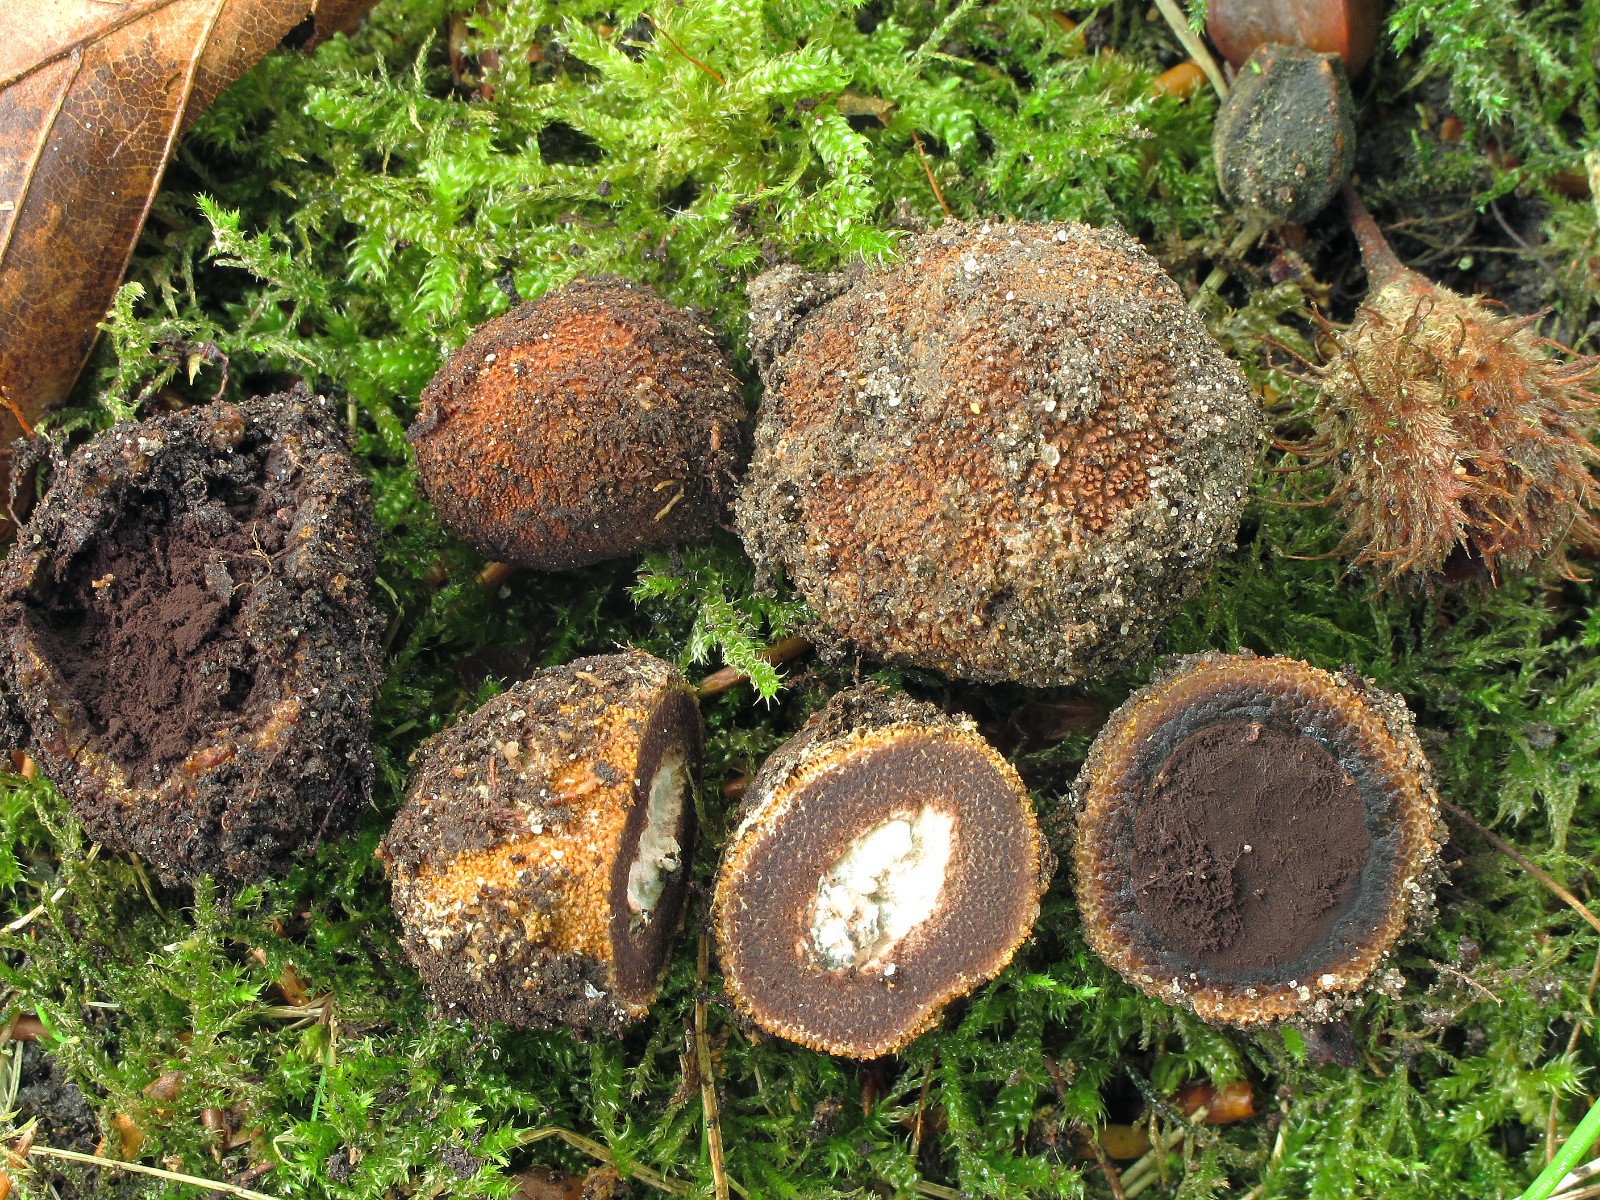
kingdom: Fungi
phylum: Ascomycota
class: Eurotiomycetes
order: Eurotiales
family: Elaphomycetaceae
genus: Elaphomyces
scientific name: Elaphomyces muricatus
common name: vortet hjortetrøffel
